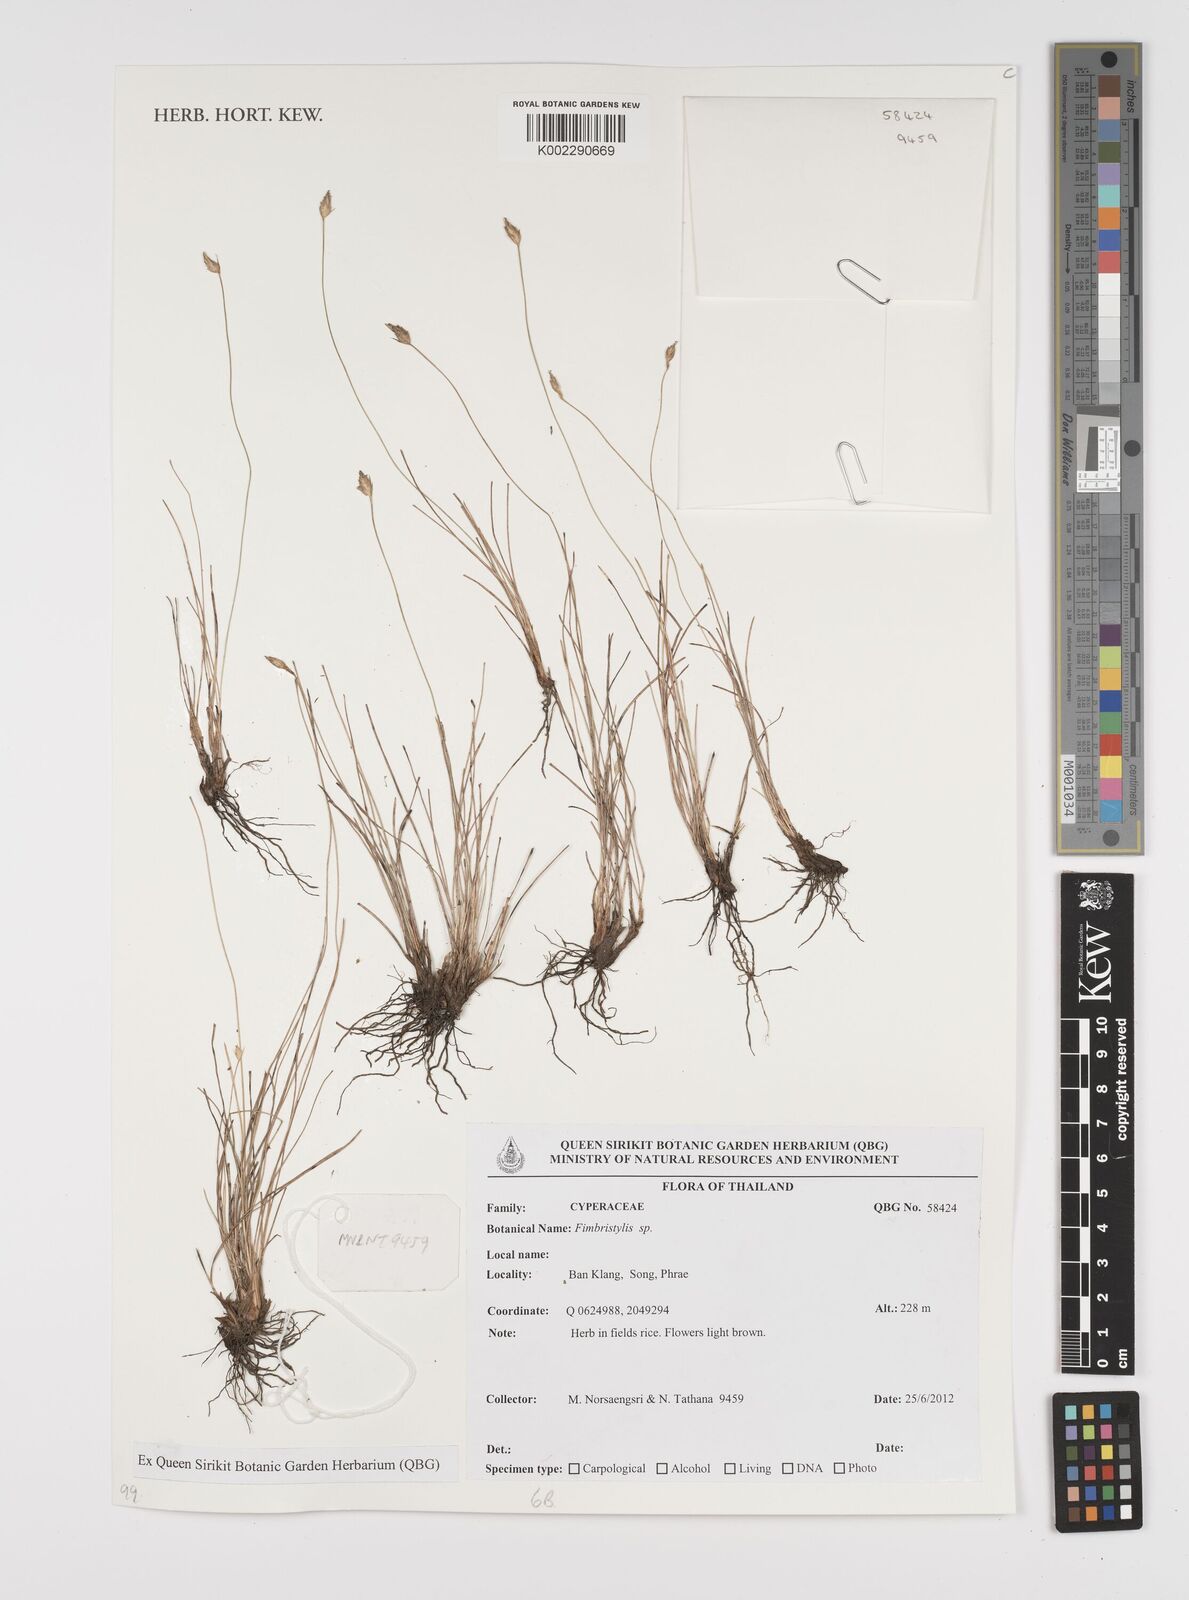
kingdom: Plantae
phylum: Tracheophyta
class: Liliopsida
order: Poales
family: Cyperaceae
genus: Fimbristylis
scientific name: Fimbristylis
